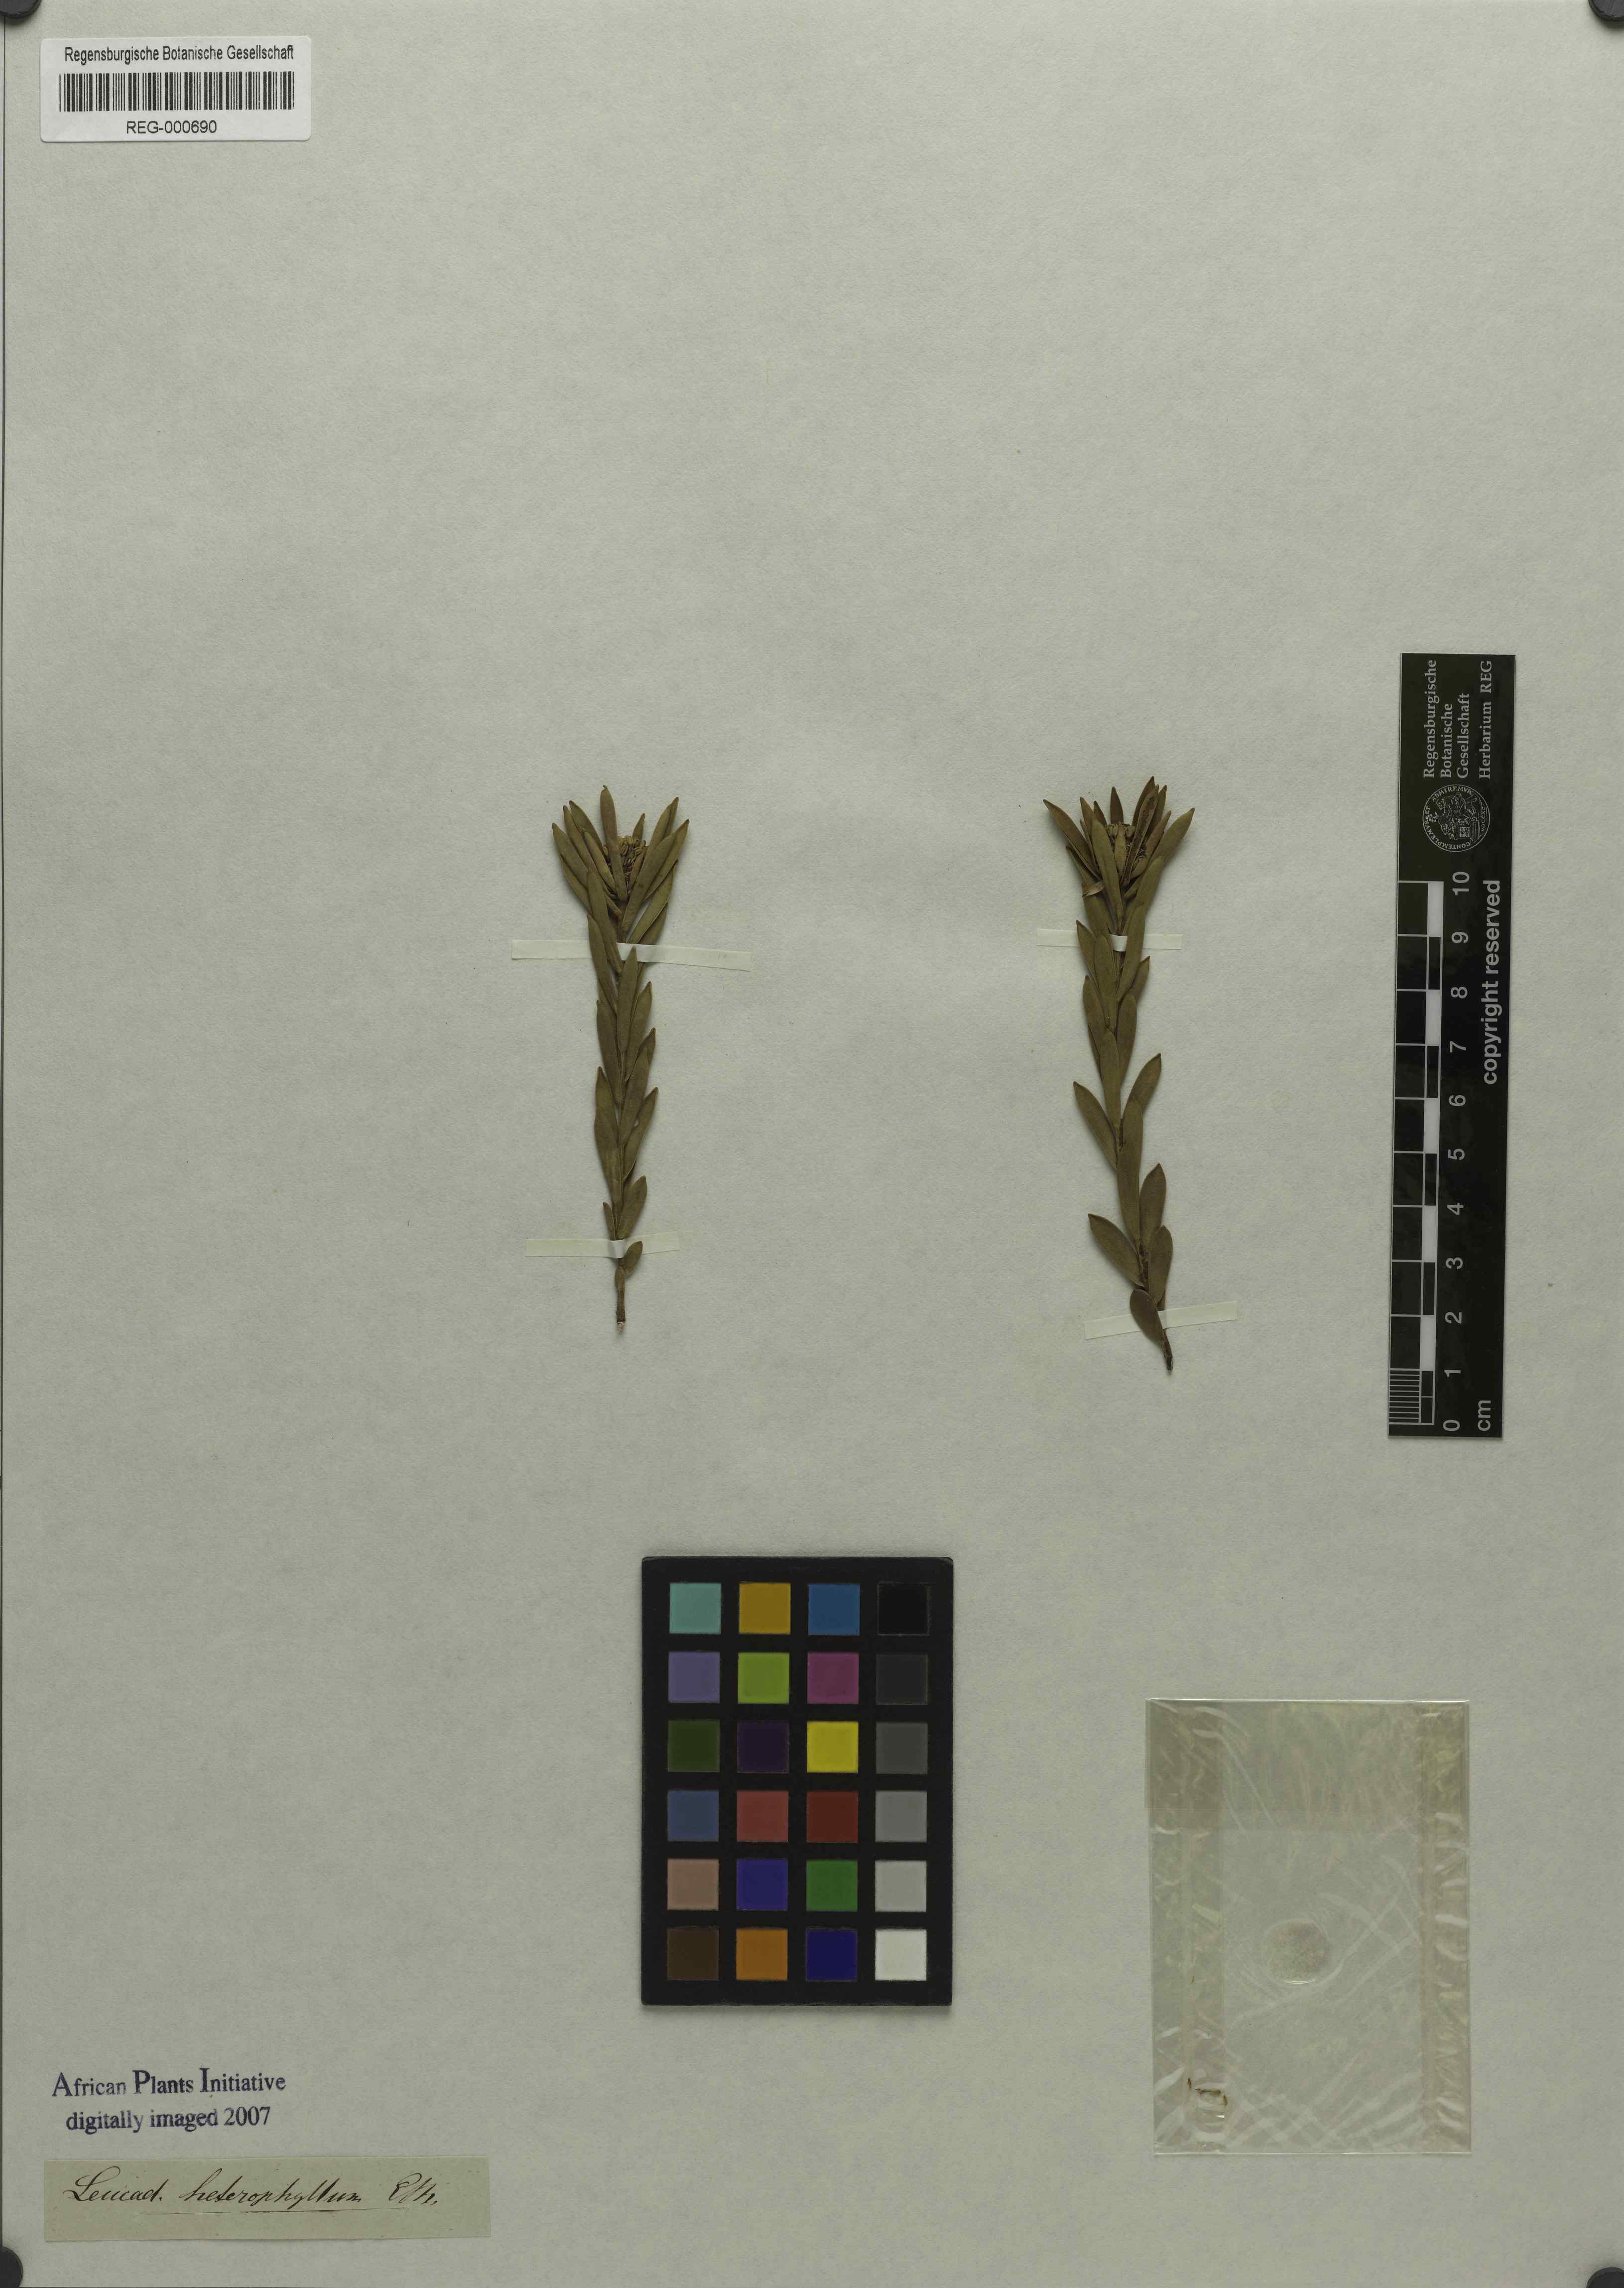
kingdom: Plantae
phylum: Tracheophyta
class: Magnoliopsida
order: Proteales
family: Proteaceae
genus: Leucadendron
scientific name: Leucadendron lanigerum
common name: Shale conebush
